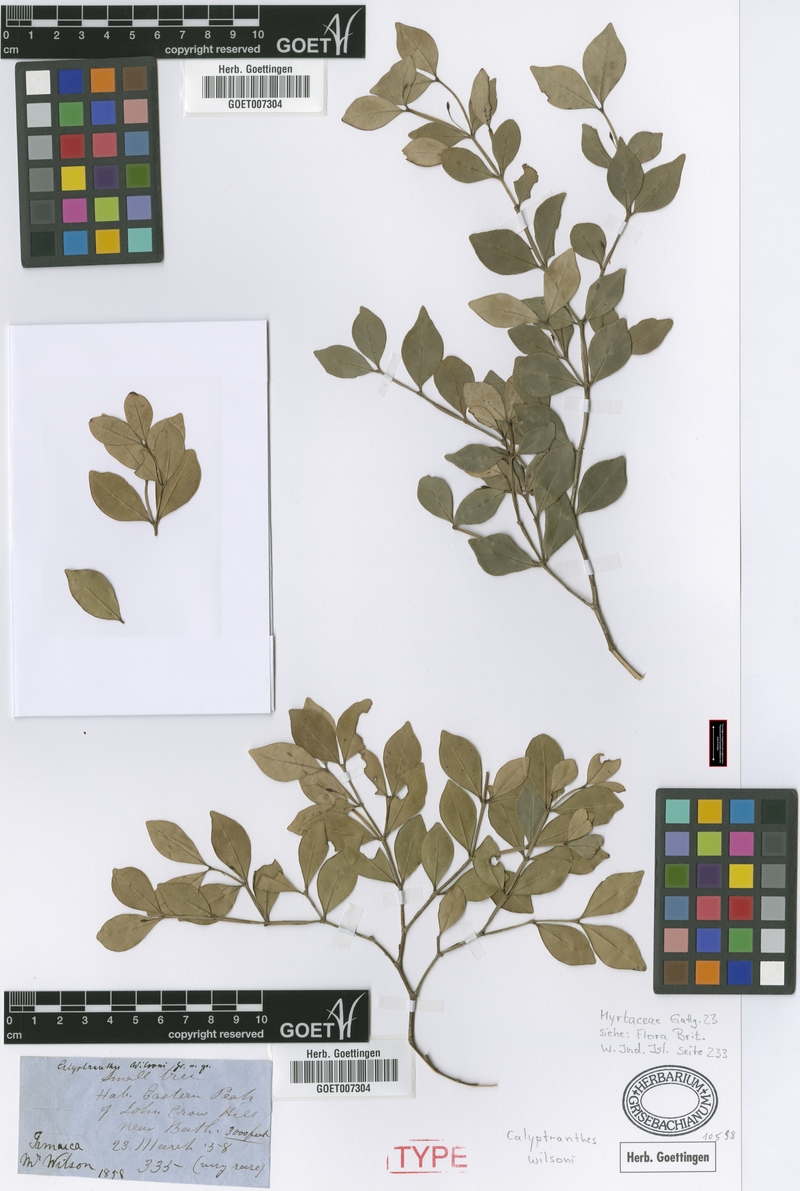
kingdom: Plantae
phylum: Tracheophyta
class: Magnoliopsida
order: Myrtales
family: Myrtaceae
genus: Myrcia
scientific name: Myrcia wilsonii
